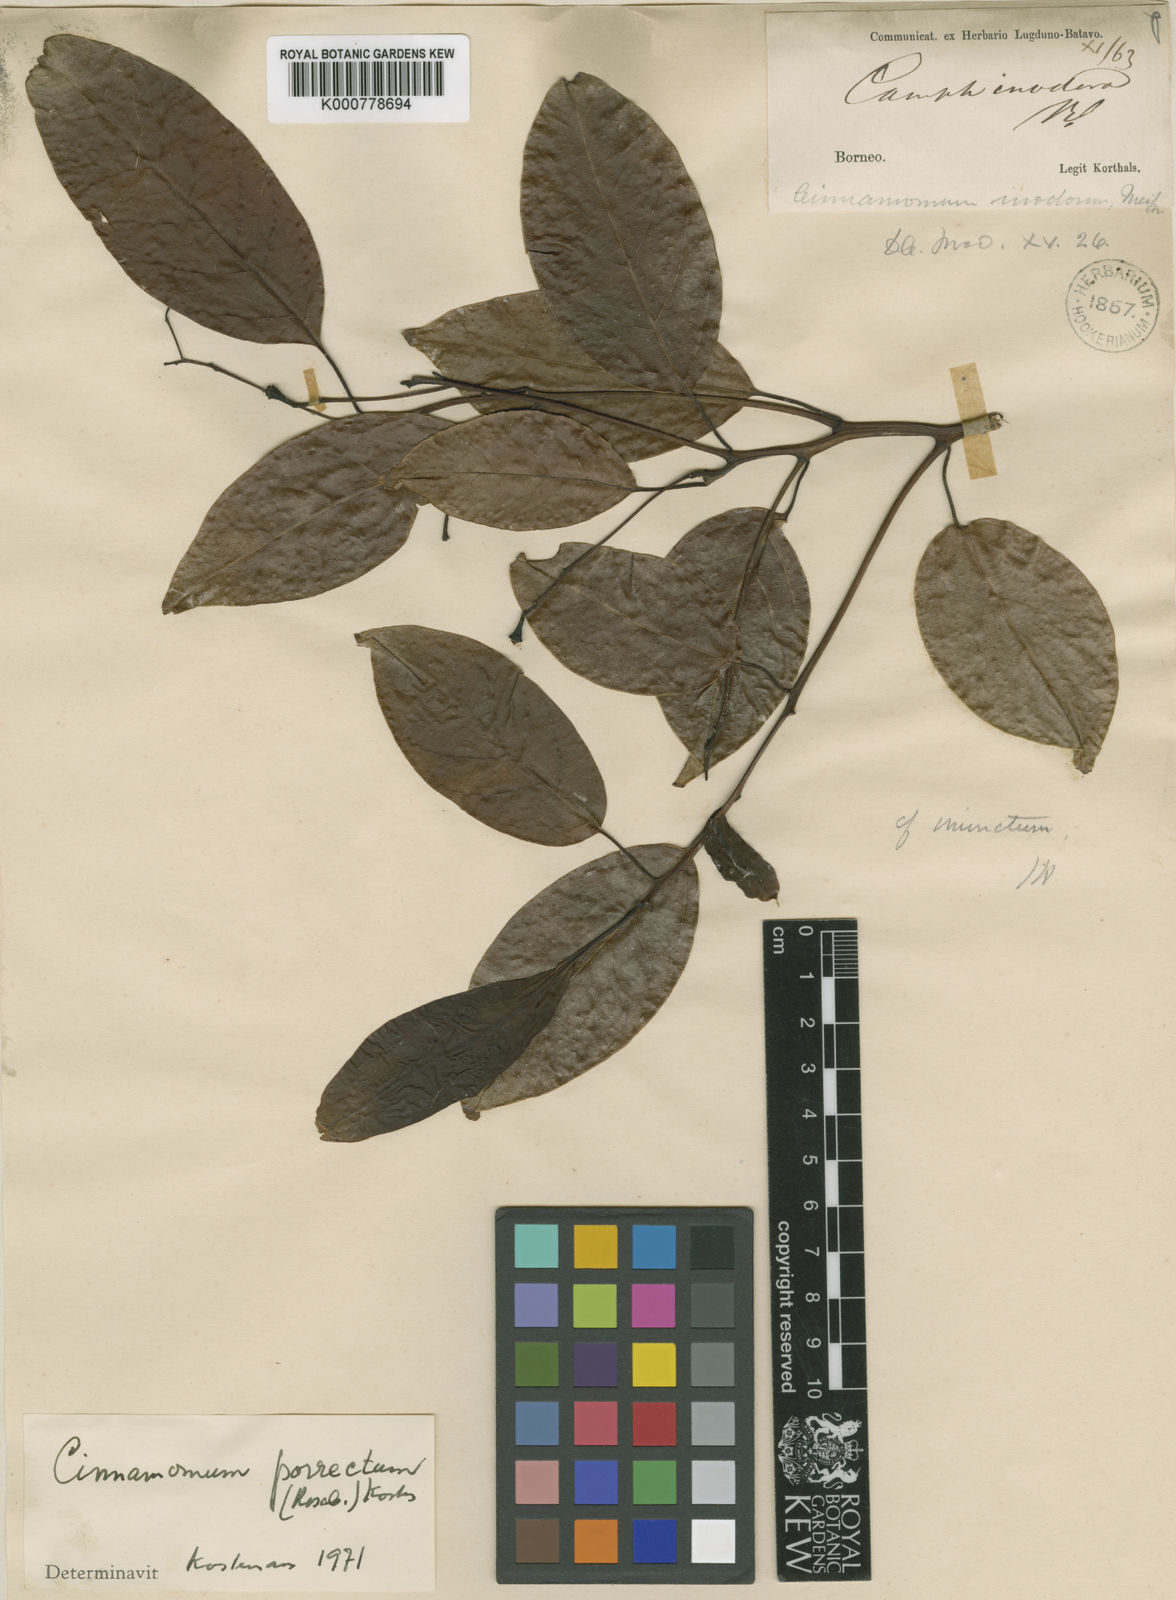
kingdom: Plantae
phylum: Tracheophyta
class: Magnoliopsida
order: Laurales
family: Lauraceae
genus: Cinnamomum
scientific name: Cinnamomum
